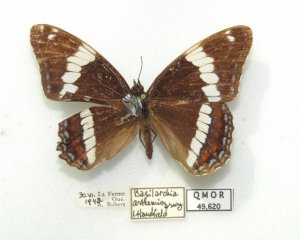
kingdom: Animalia
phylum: Arthropoda
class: Insecta
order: Lepidoptera
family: Nymphalidae
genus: Limenitis
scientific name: Limenitis arthemis
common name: Red-spotted Admiral
